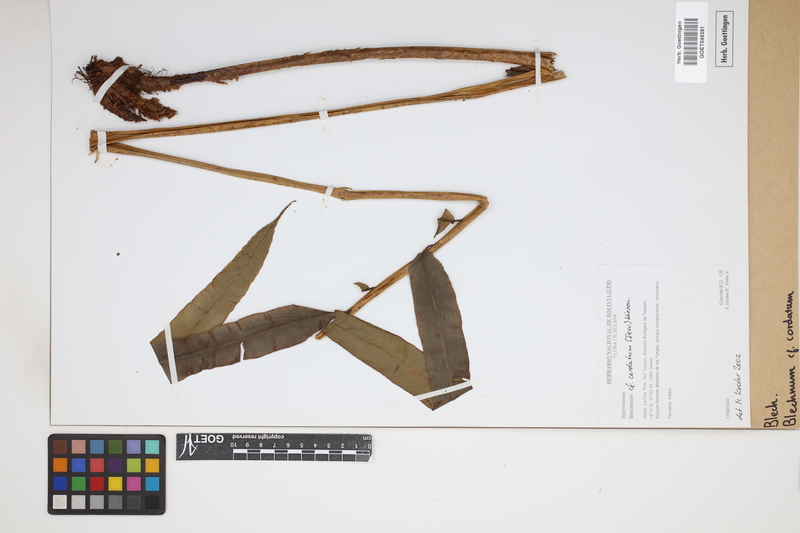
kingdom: Plantae
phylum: Tracheophyta
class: Polypodiopsida
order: Polypodiales
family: Blechnaceae
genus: Parablechnum
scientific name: Parablechnum cordatum
